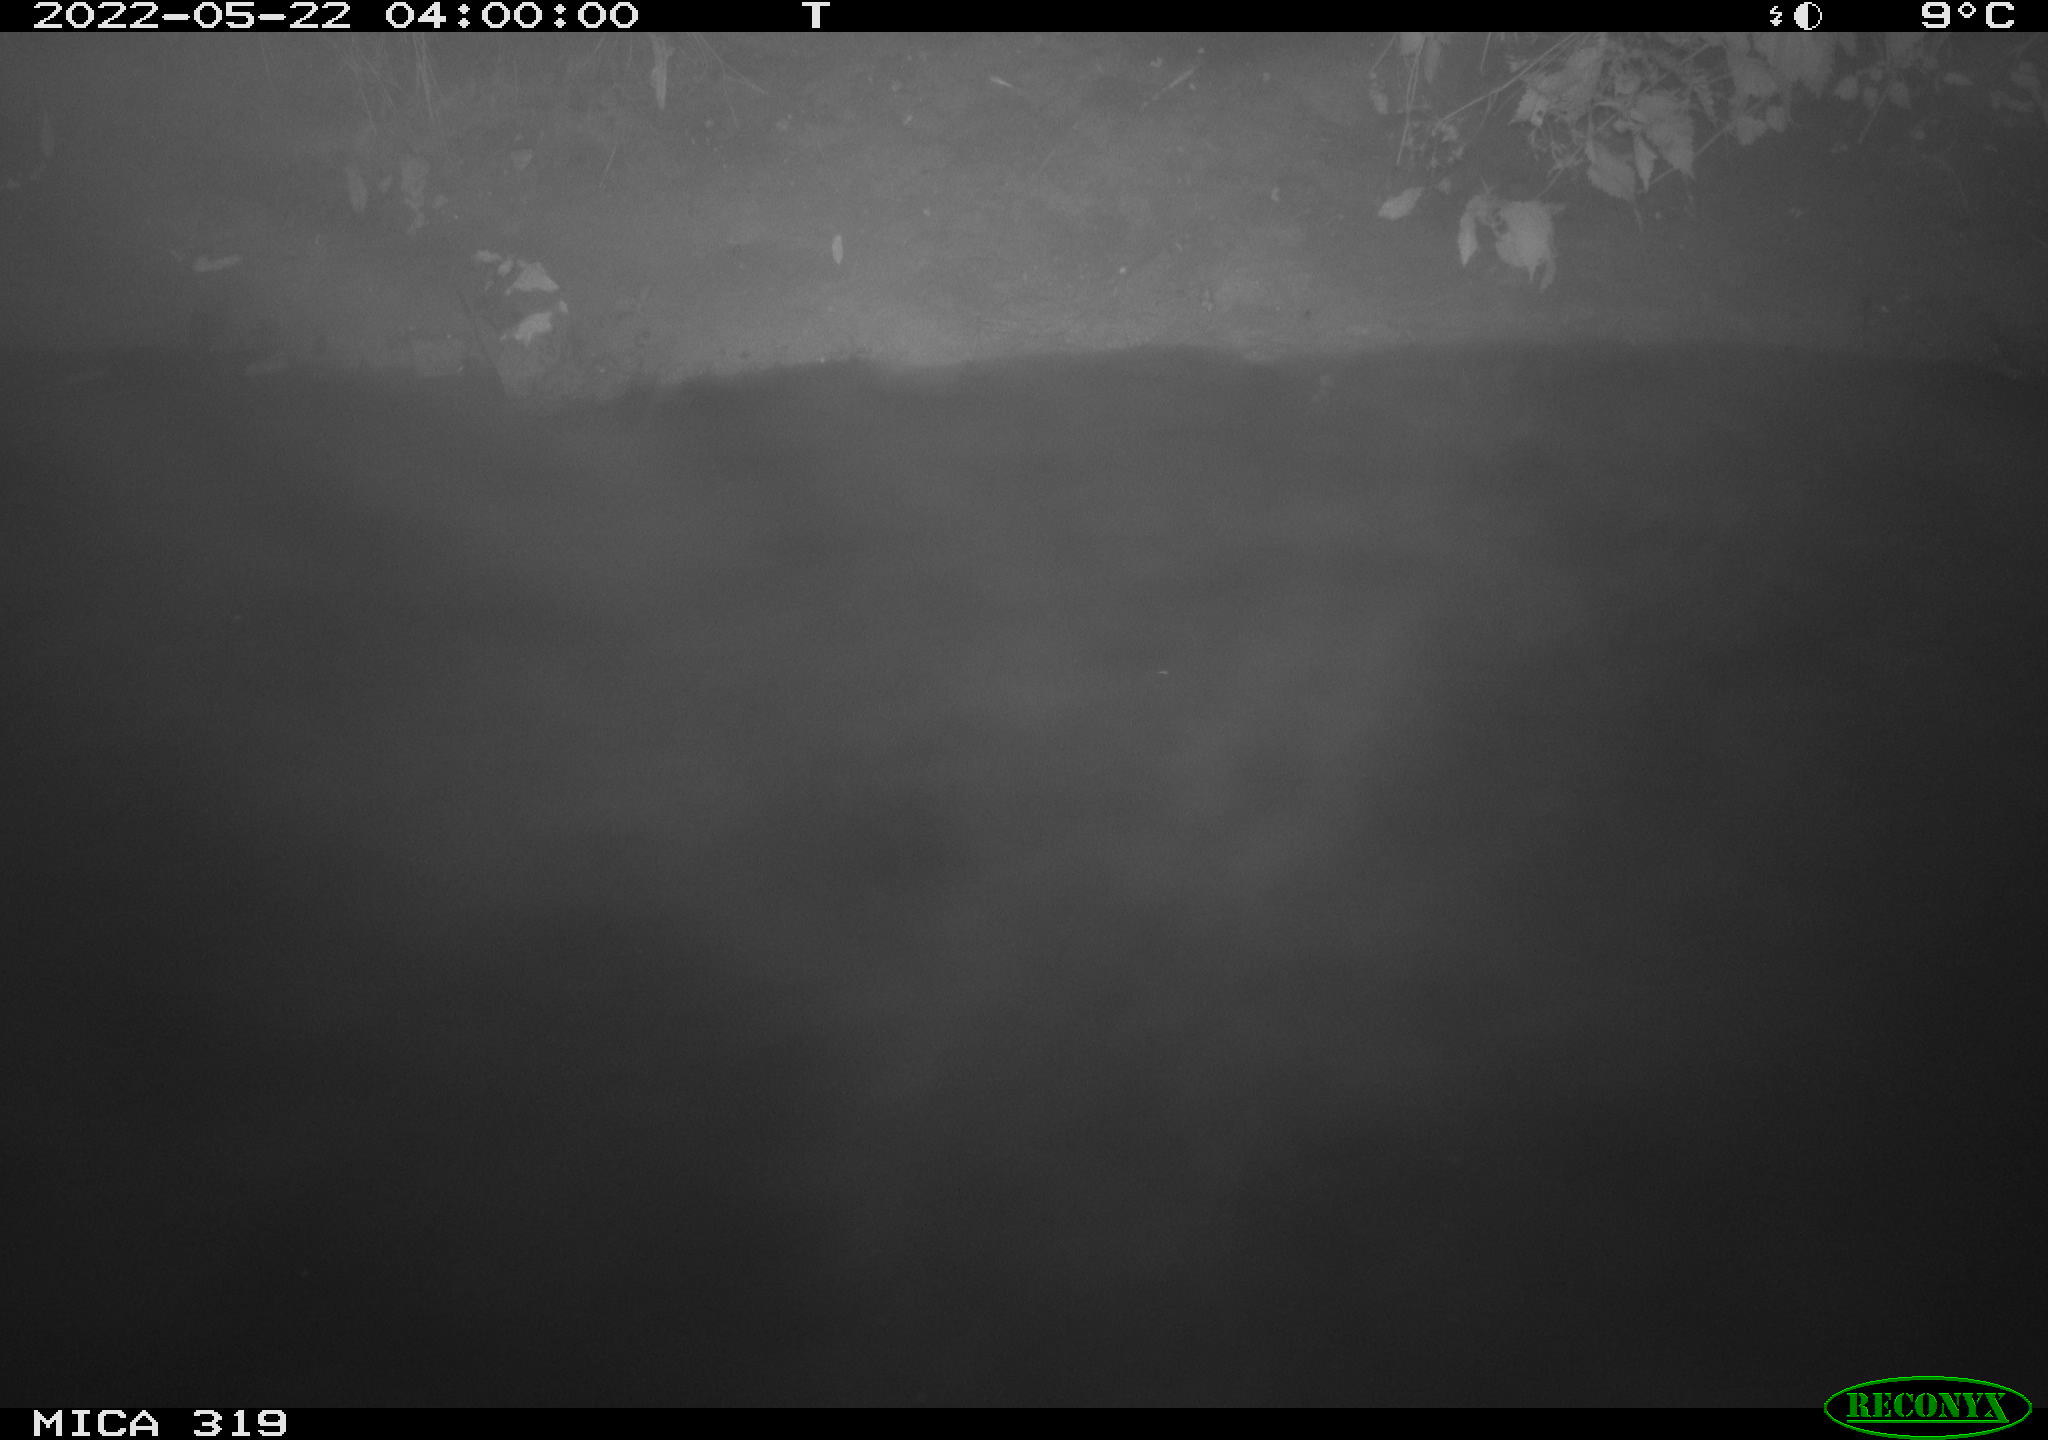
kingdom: Animalia
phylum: Chordata
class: Mammalia
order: Rodentia
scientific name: Rodentia
